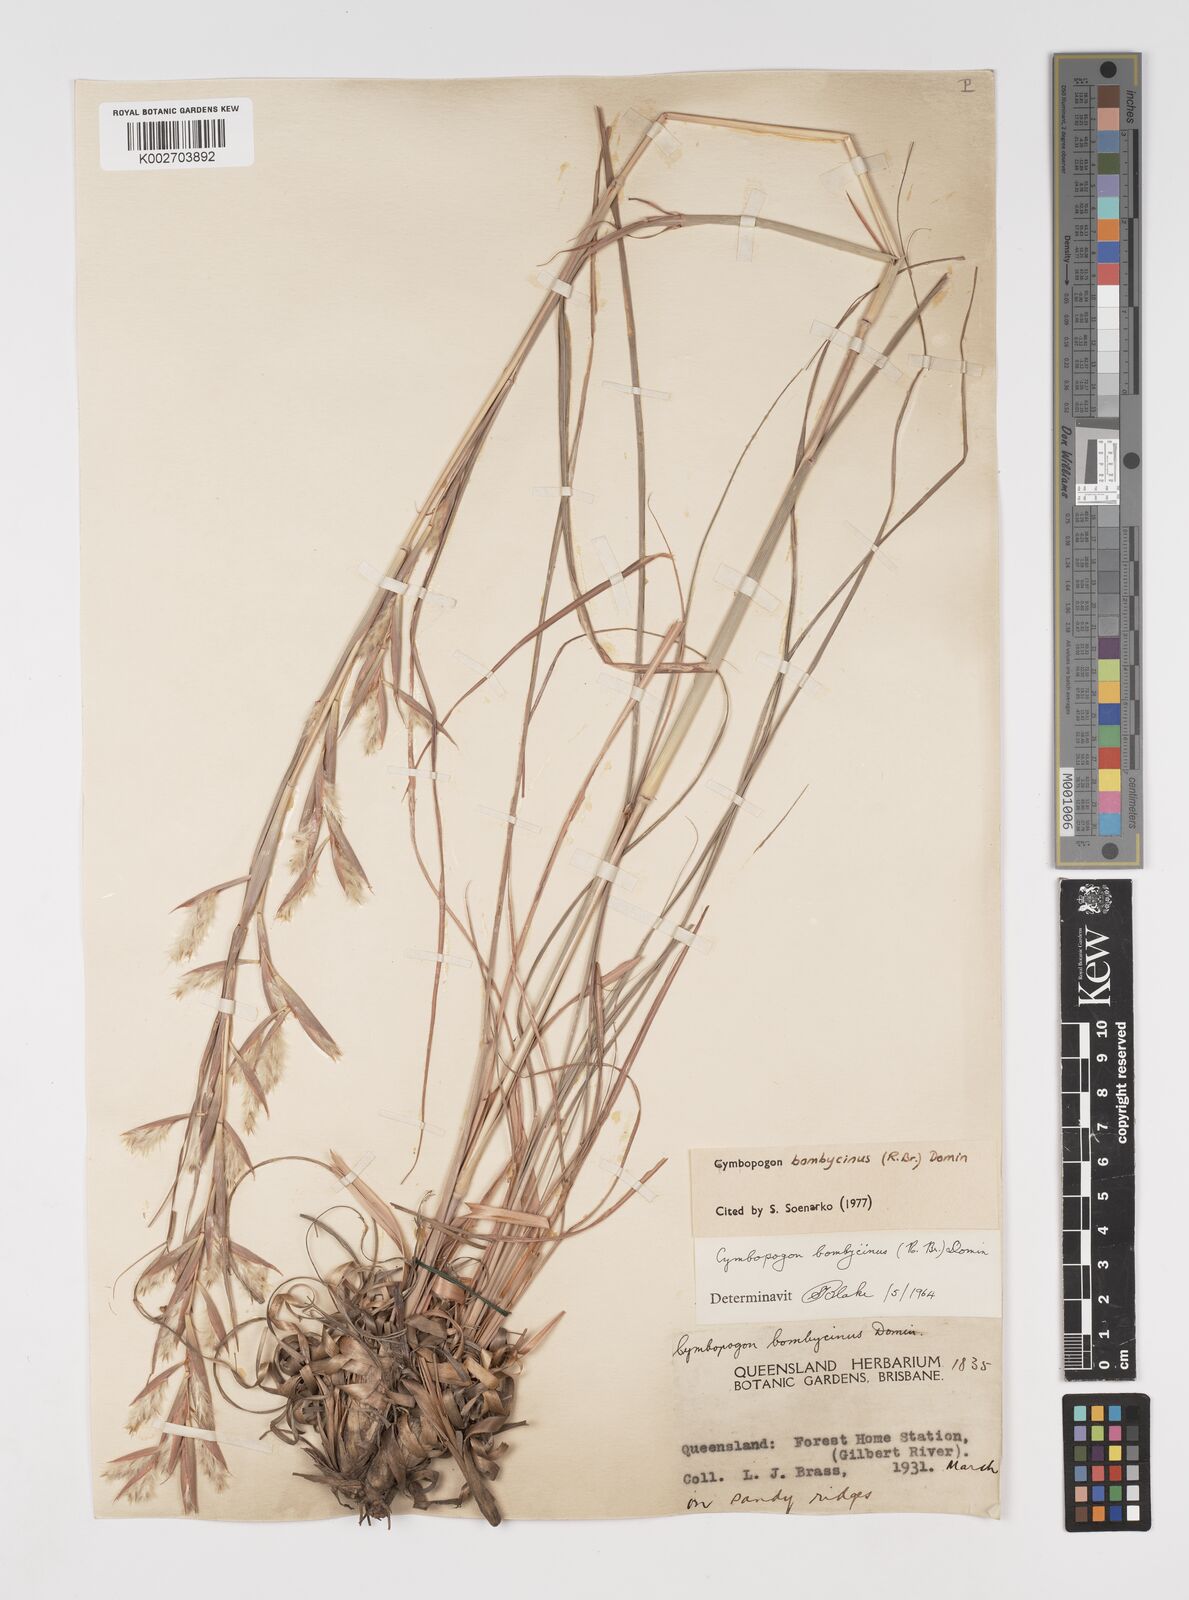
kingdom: Plantae
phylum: Tracheophyta
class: Liliopsida
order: Poales
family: Poaceae
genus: Cymbopogon
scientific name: Cymbopogon bombycinus
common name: Citronella grass
